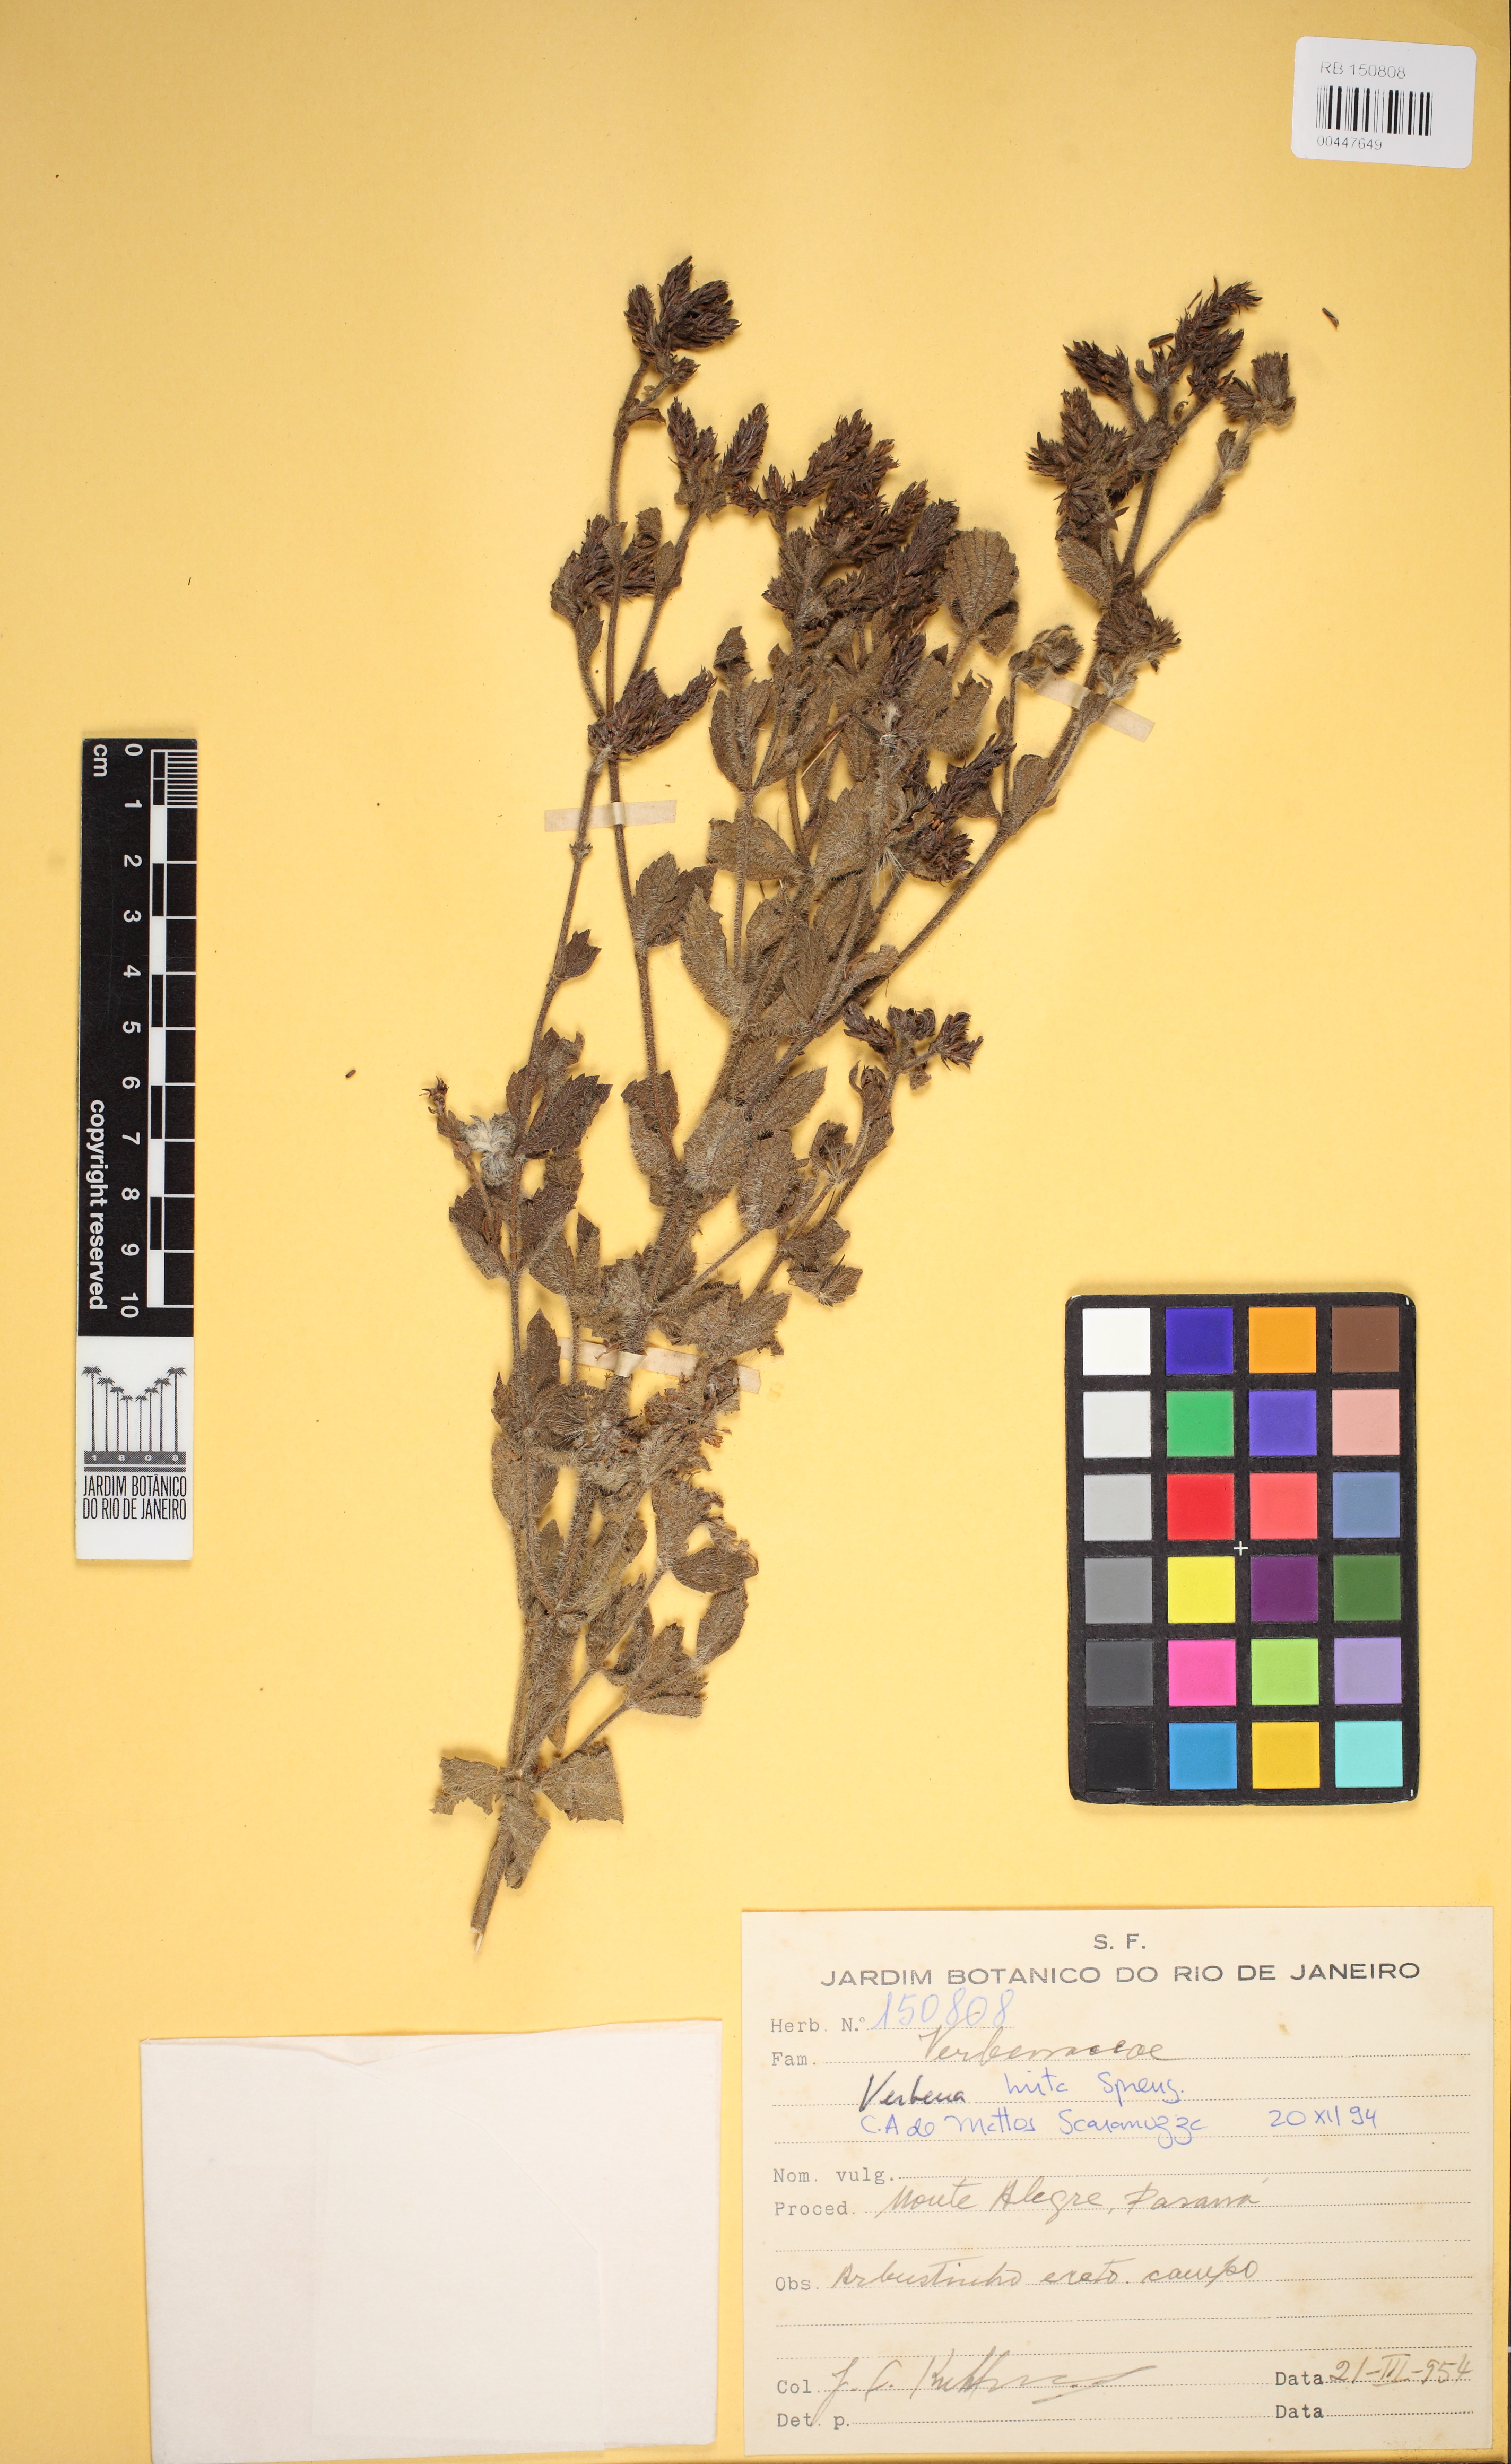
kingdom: Plantae
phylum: Tracheophyta
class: Magnoliopsida
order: Lamiales
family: Verbenaceae
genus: Verbena
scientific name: Verbena hirta
